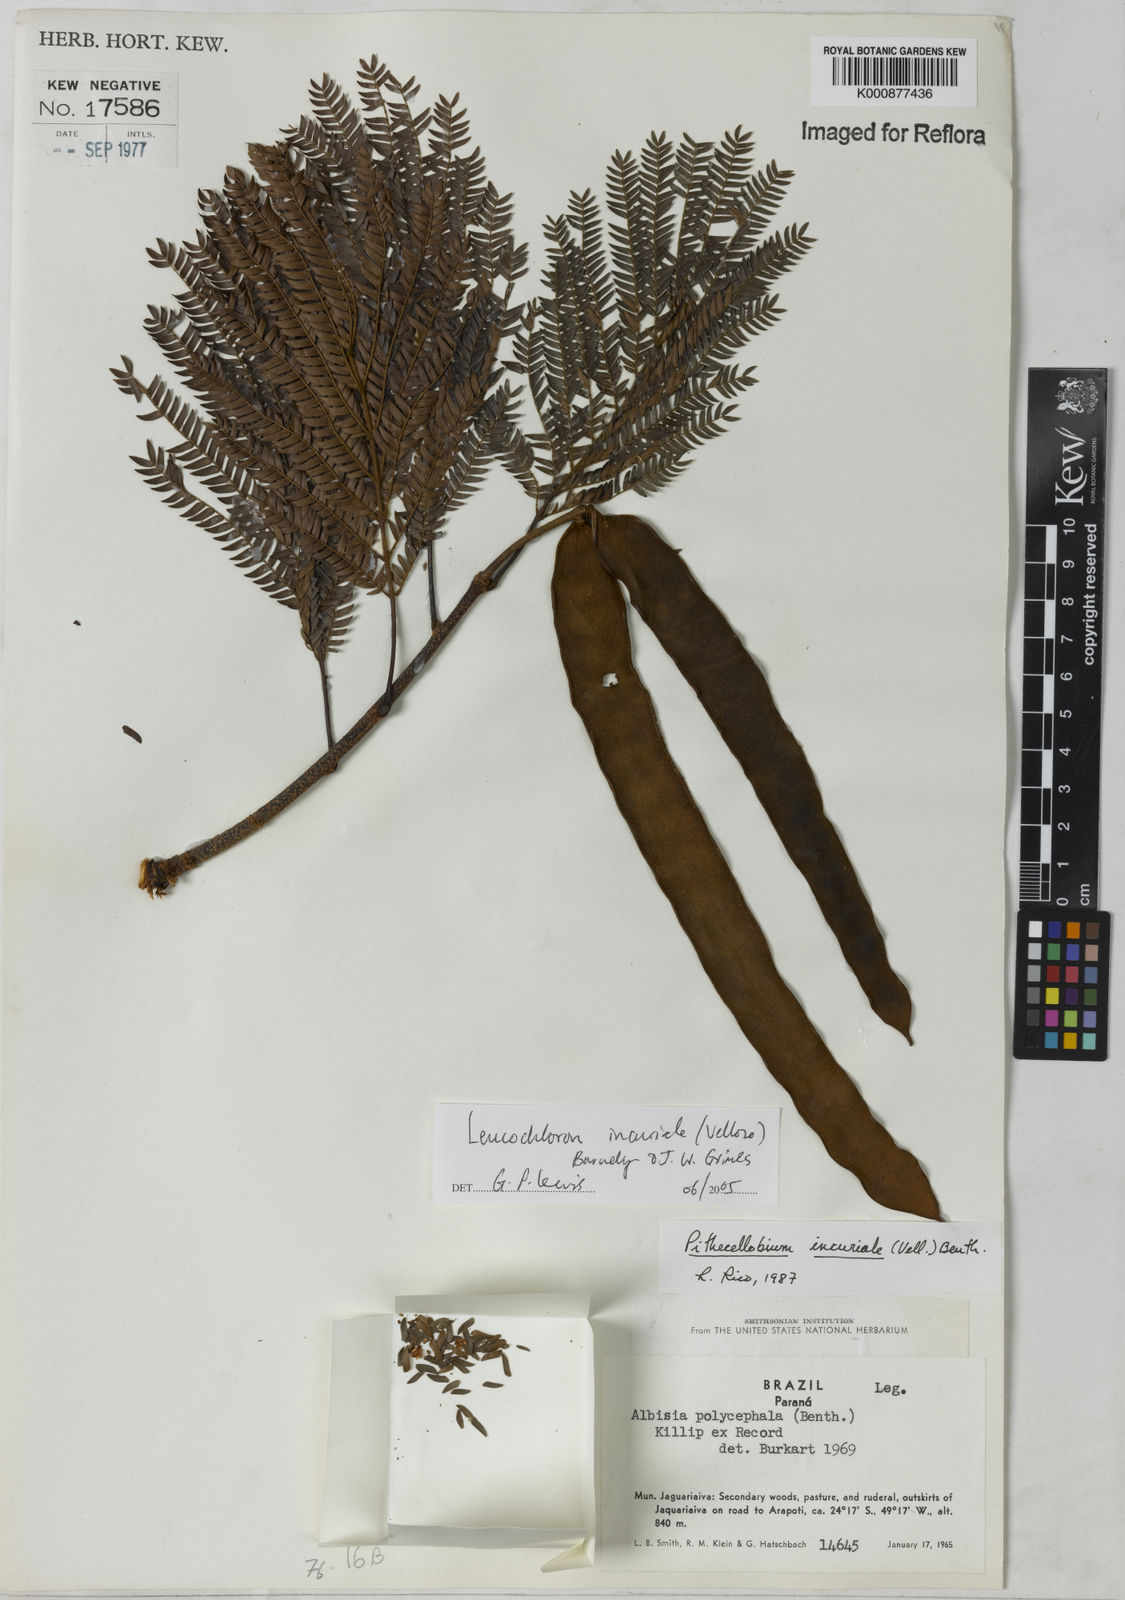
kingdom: Plantae
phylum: Tracheophyta
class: Magnoliopsida
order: Fabales
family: Fabaceae
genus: Leucochloron
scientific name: Leucochloron incuriale
